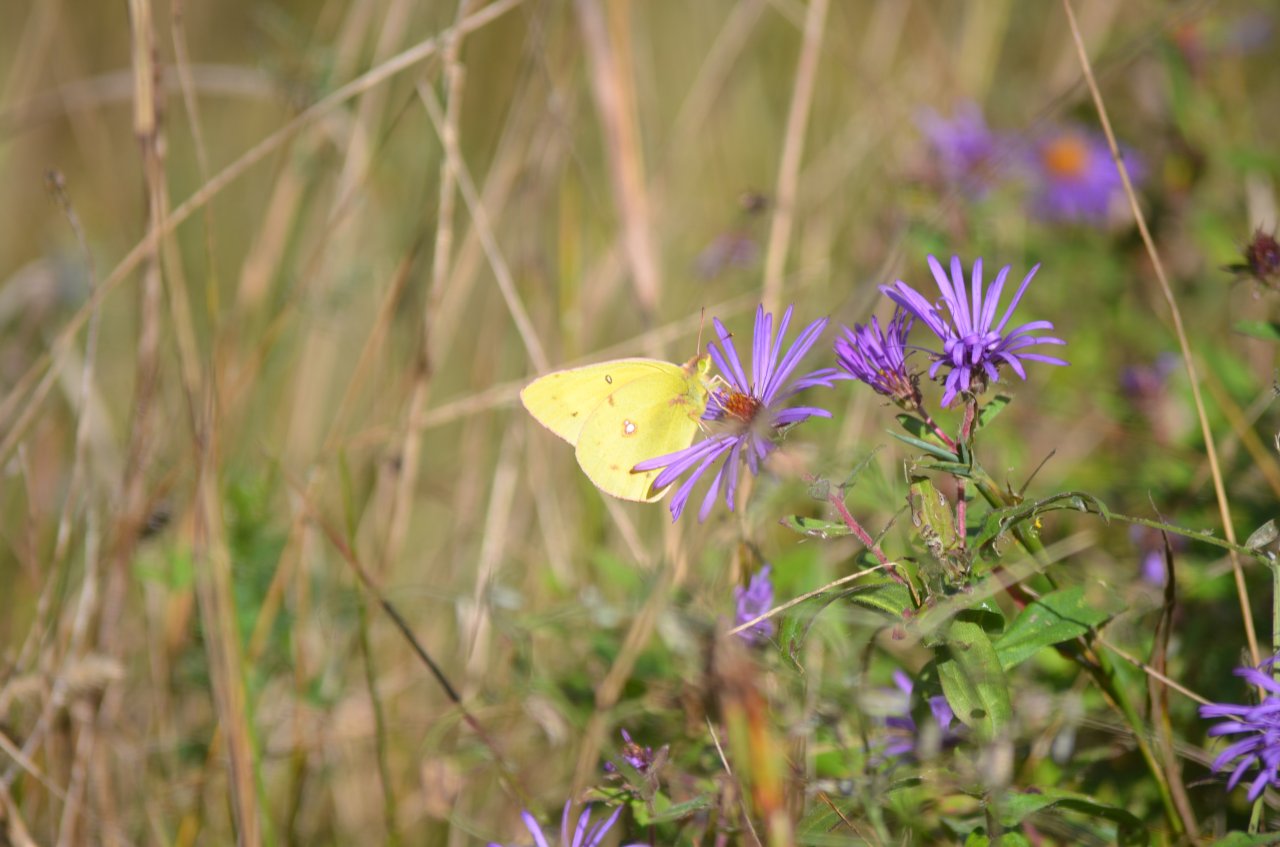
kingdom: Animalia
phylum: Arthropoda
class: Insecta
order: Lepidoptera
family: Pieridae
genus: Colias
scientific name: Colias philodice
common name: Clouded Sulphur
